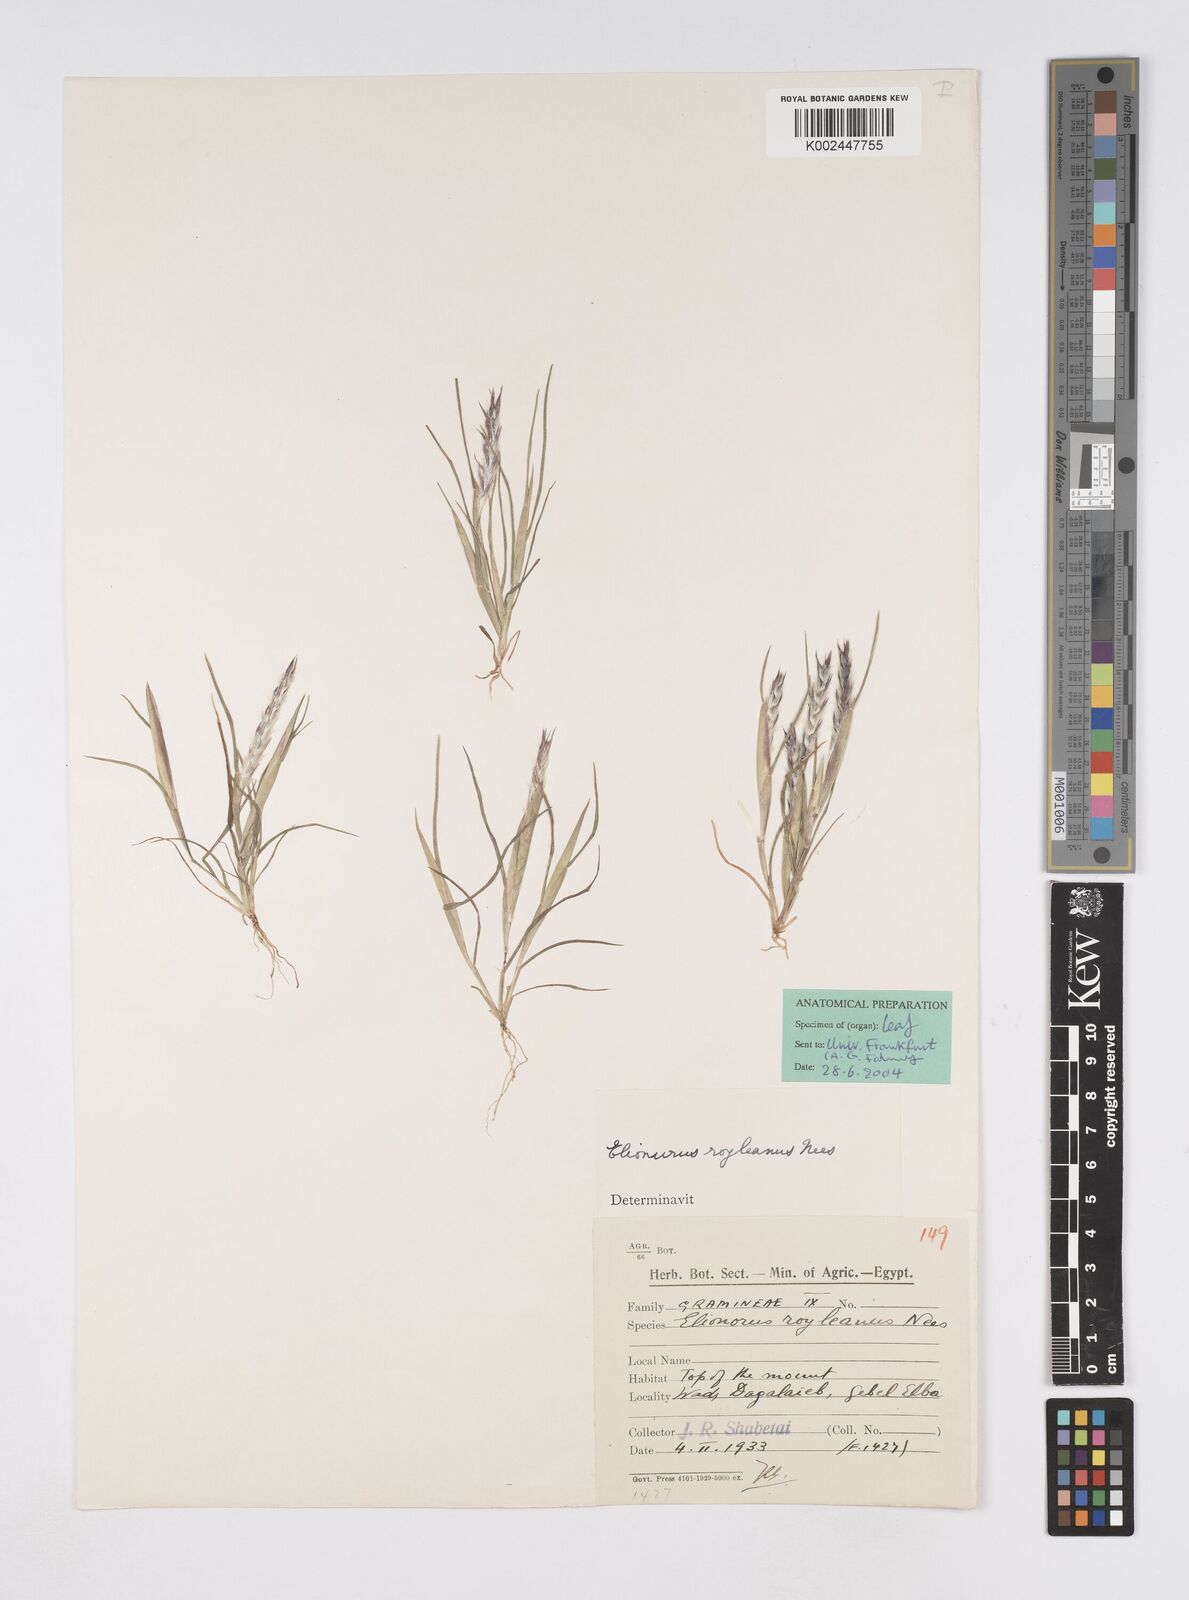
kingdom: Plantae
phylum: Tracheophyta
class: Liliopsida
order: Poales
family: Poaceae
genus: Elionurus
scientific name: Elionurus royleanus
